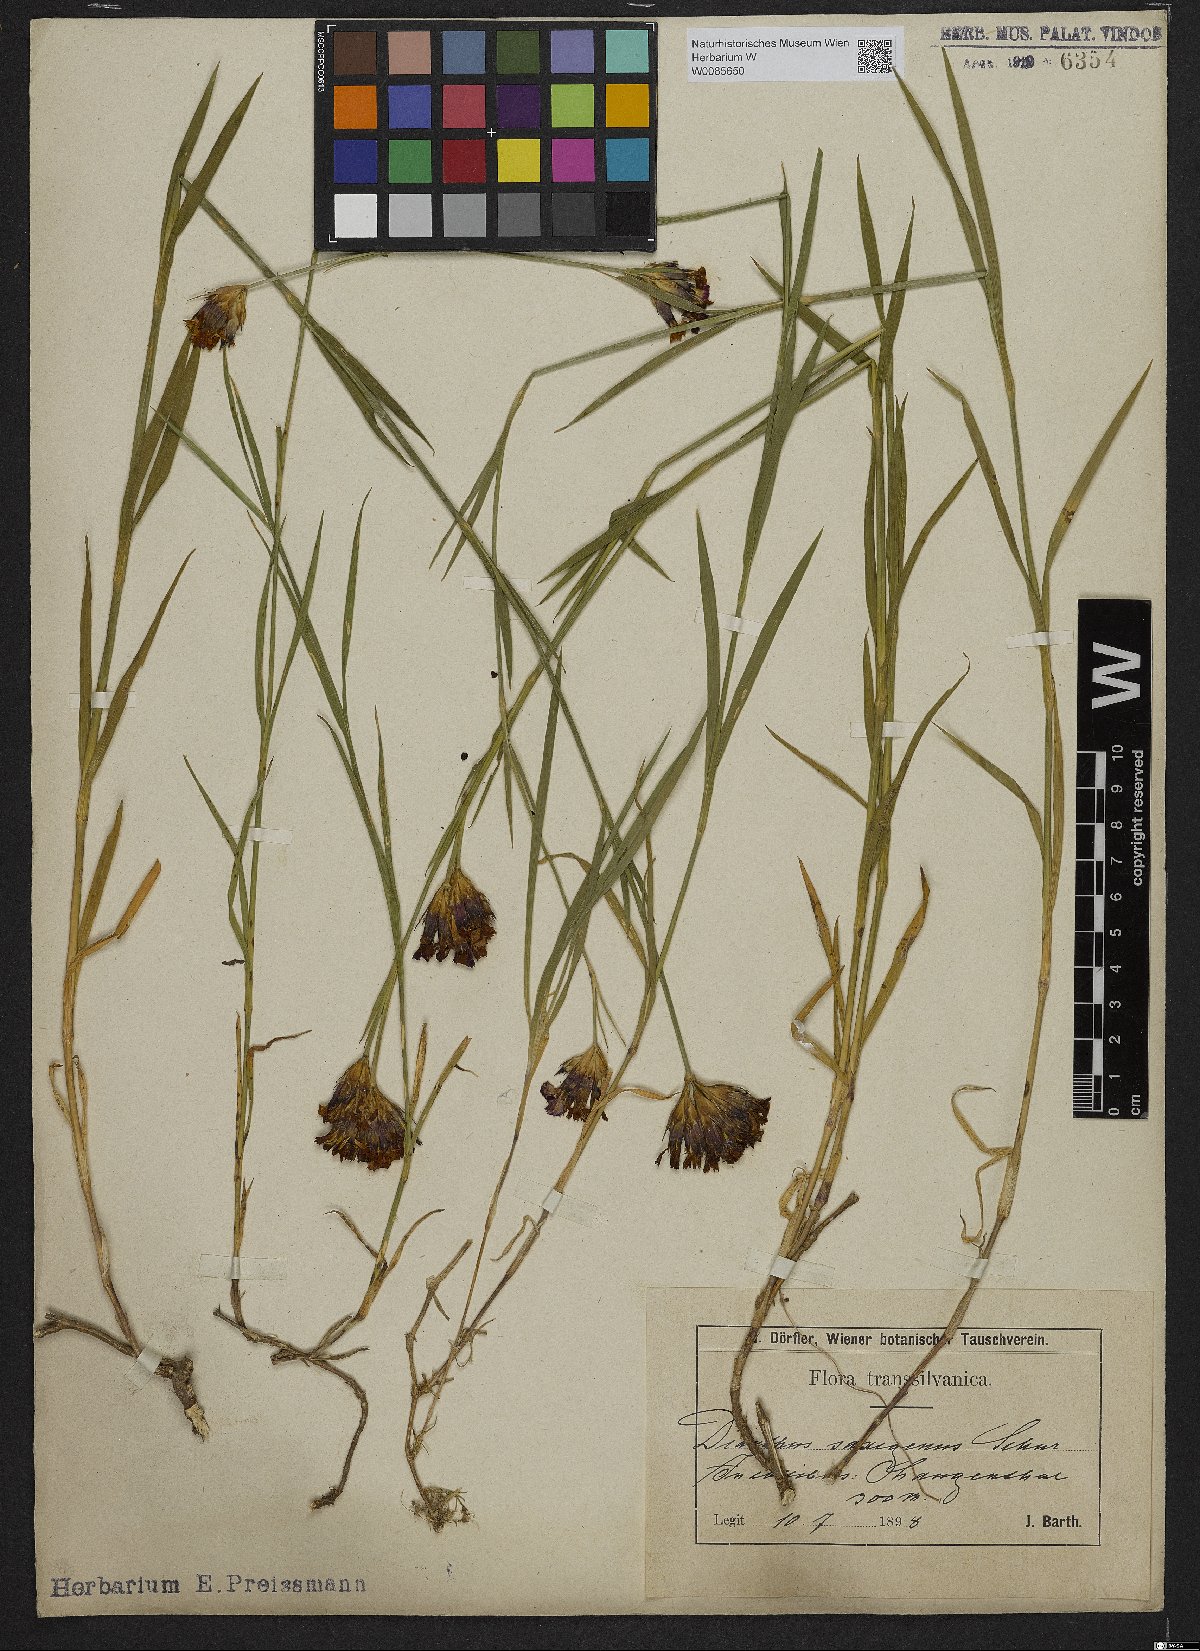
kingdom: Plantae
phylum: Tracheophyta
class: Magnoliopsida
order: Caryophyllales
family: Caryophyllaceae
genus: Dianthus
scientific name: Dianthus
